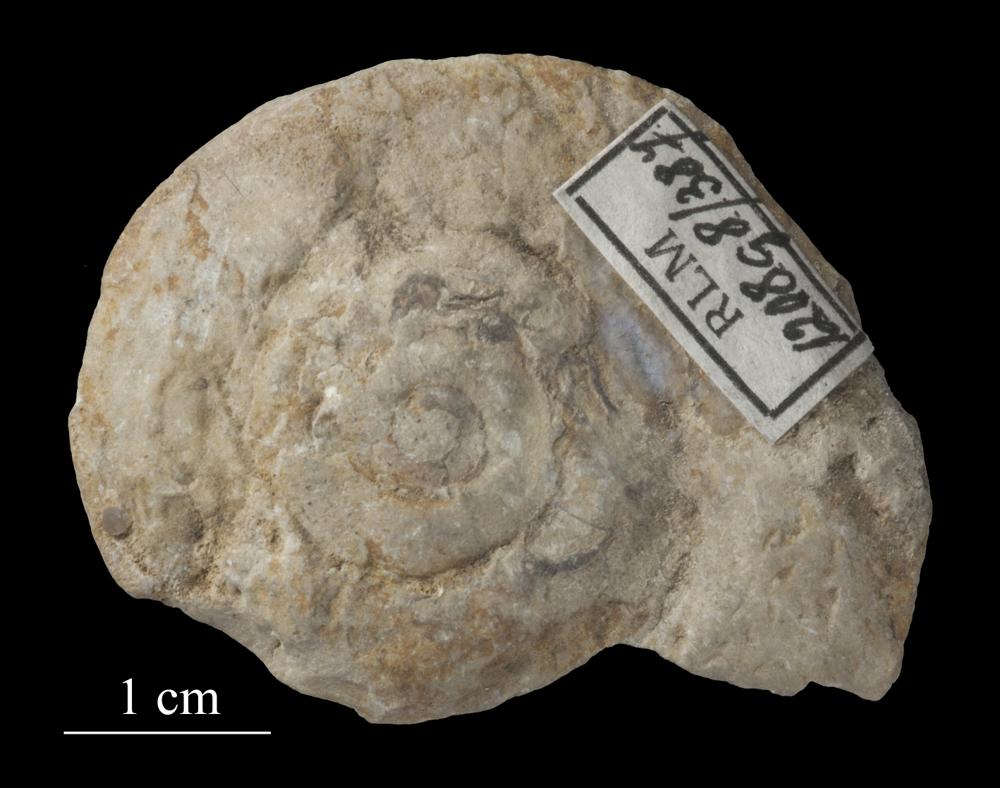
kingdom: Animalia
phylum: Mollusca
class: Gastropoda
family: Euomphalidae
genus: Euomphalus
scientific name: Euomphalus
